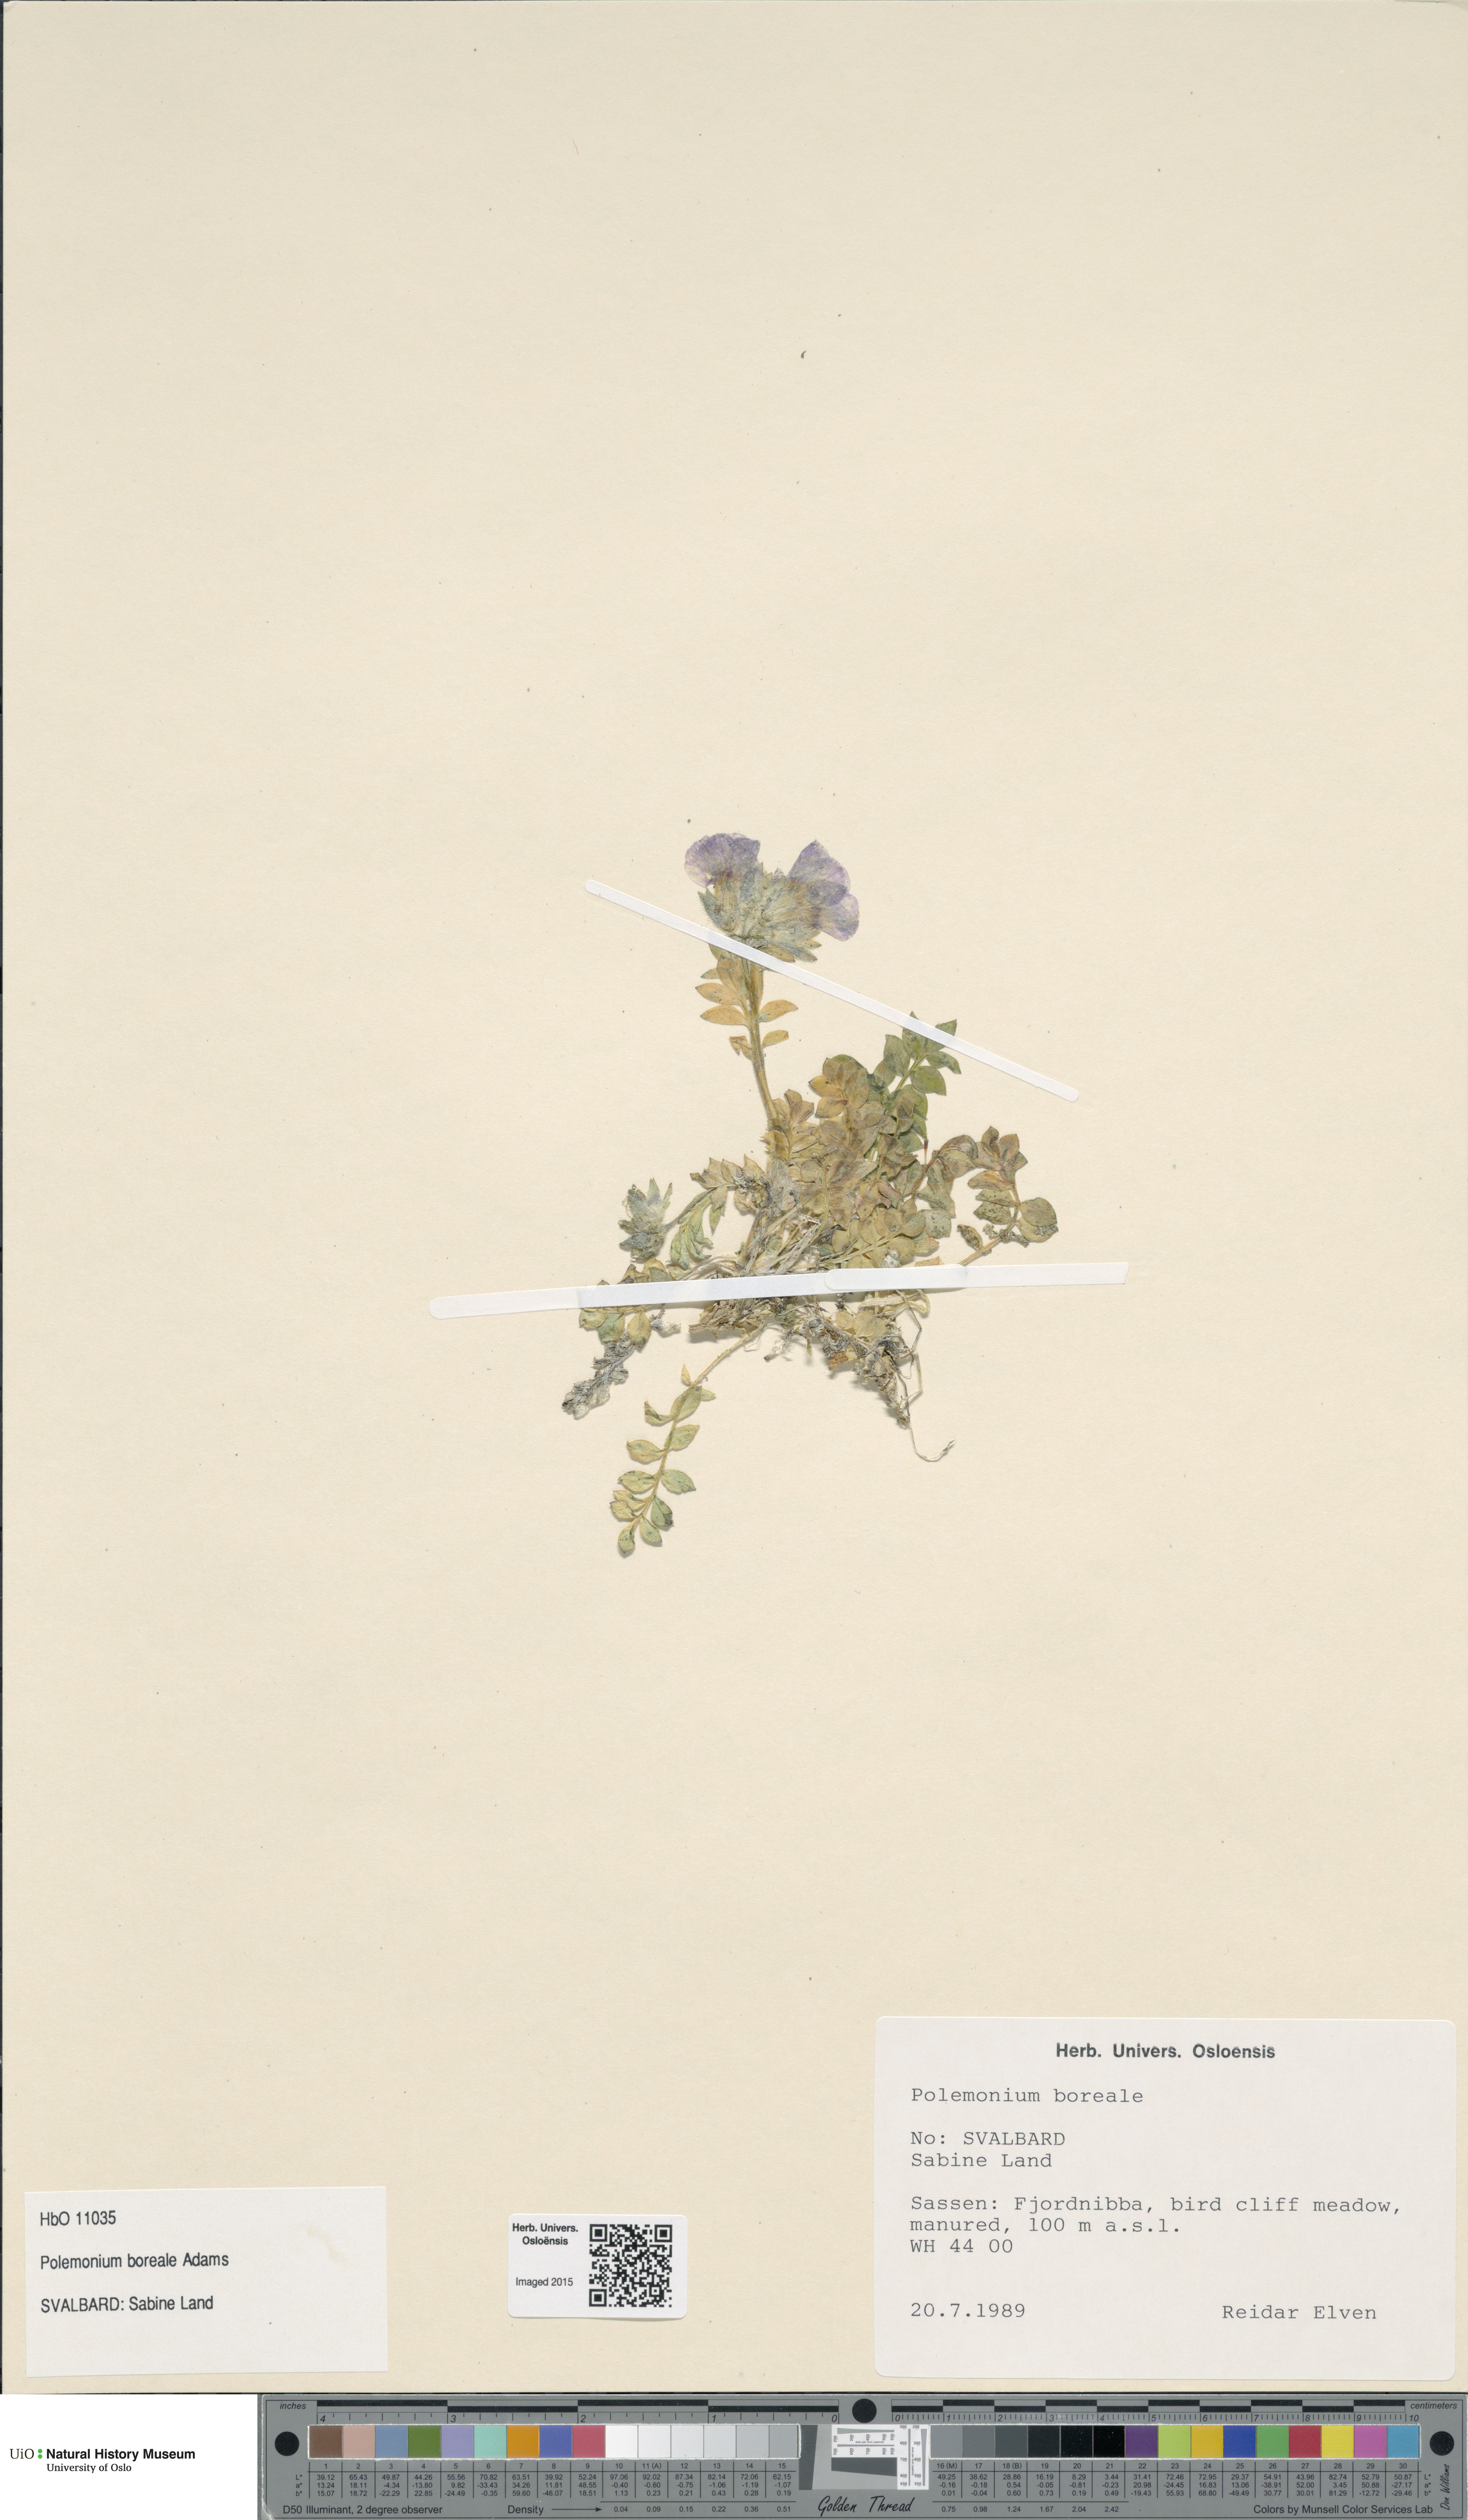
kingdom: Plantae
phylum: Tracheophyta
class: Magnoliopsida
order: Ericales
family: Polemoniaceae
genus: Polemonium
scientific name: Polemonium boreale
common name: Boreal jacob's-ladder
